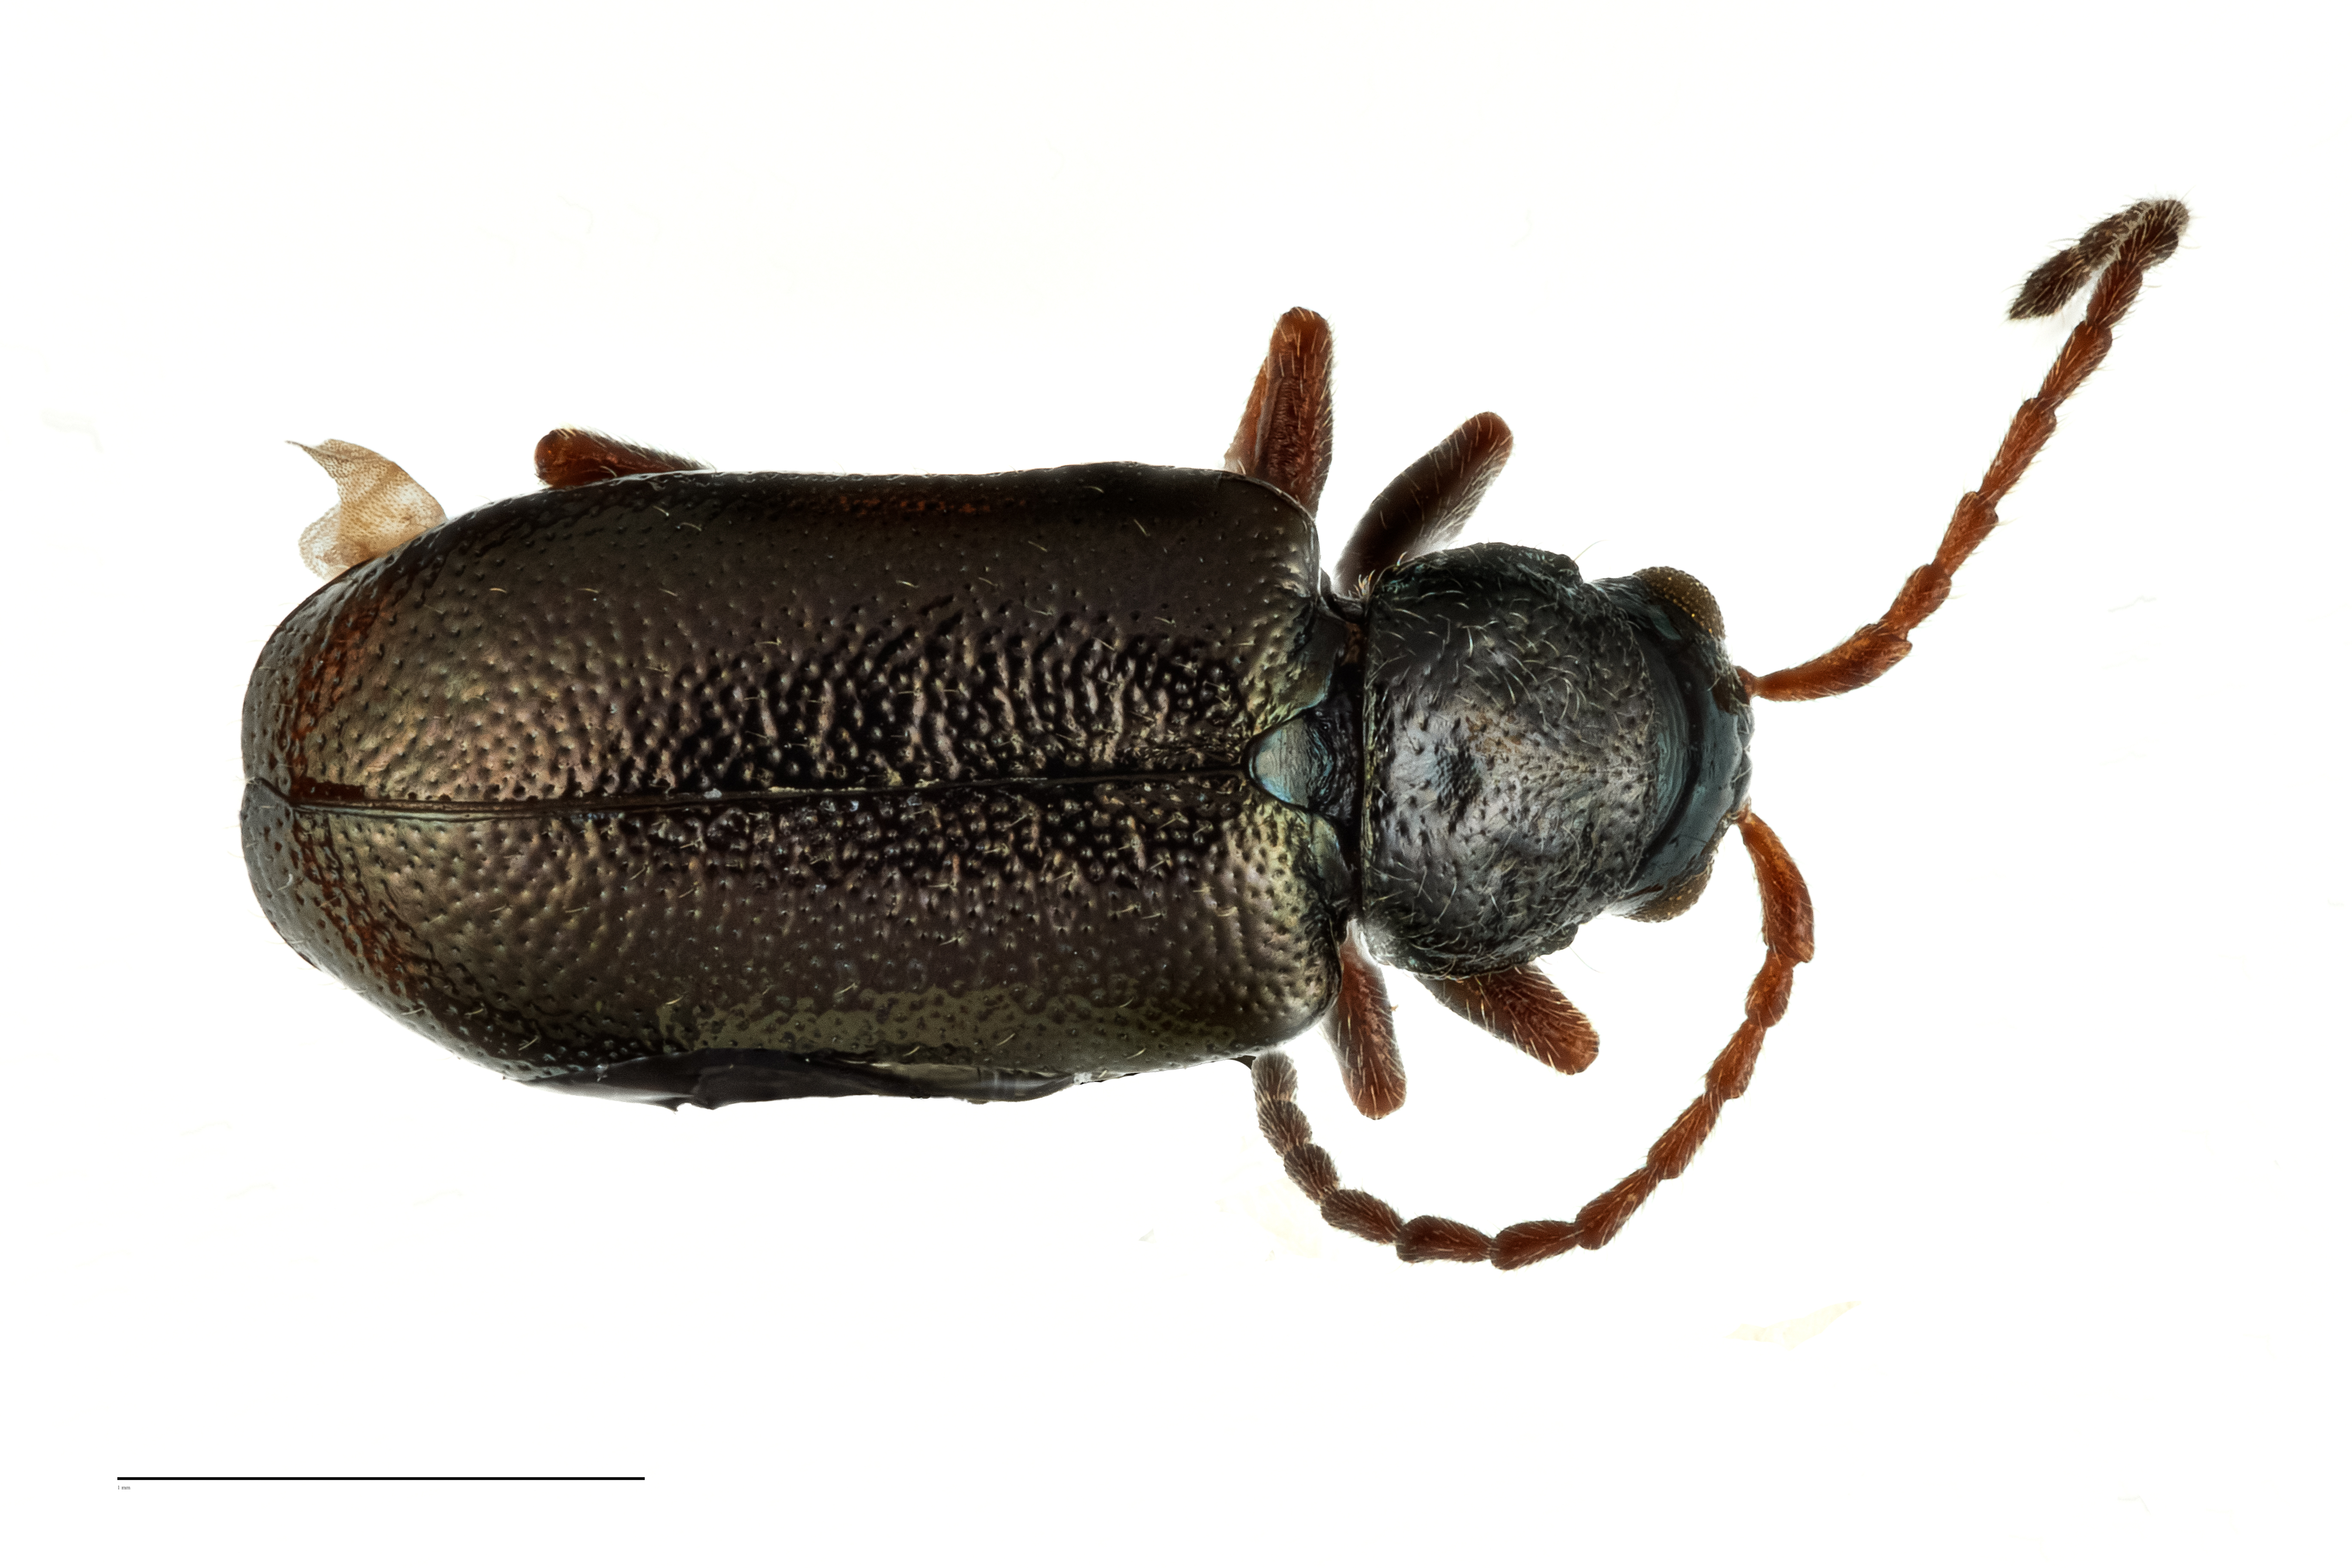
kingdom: Animalia
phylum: Arthropoda
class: Insecta
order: Coleoptera
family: Chrysomelidae
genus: Allastena
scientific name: Allastena
